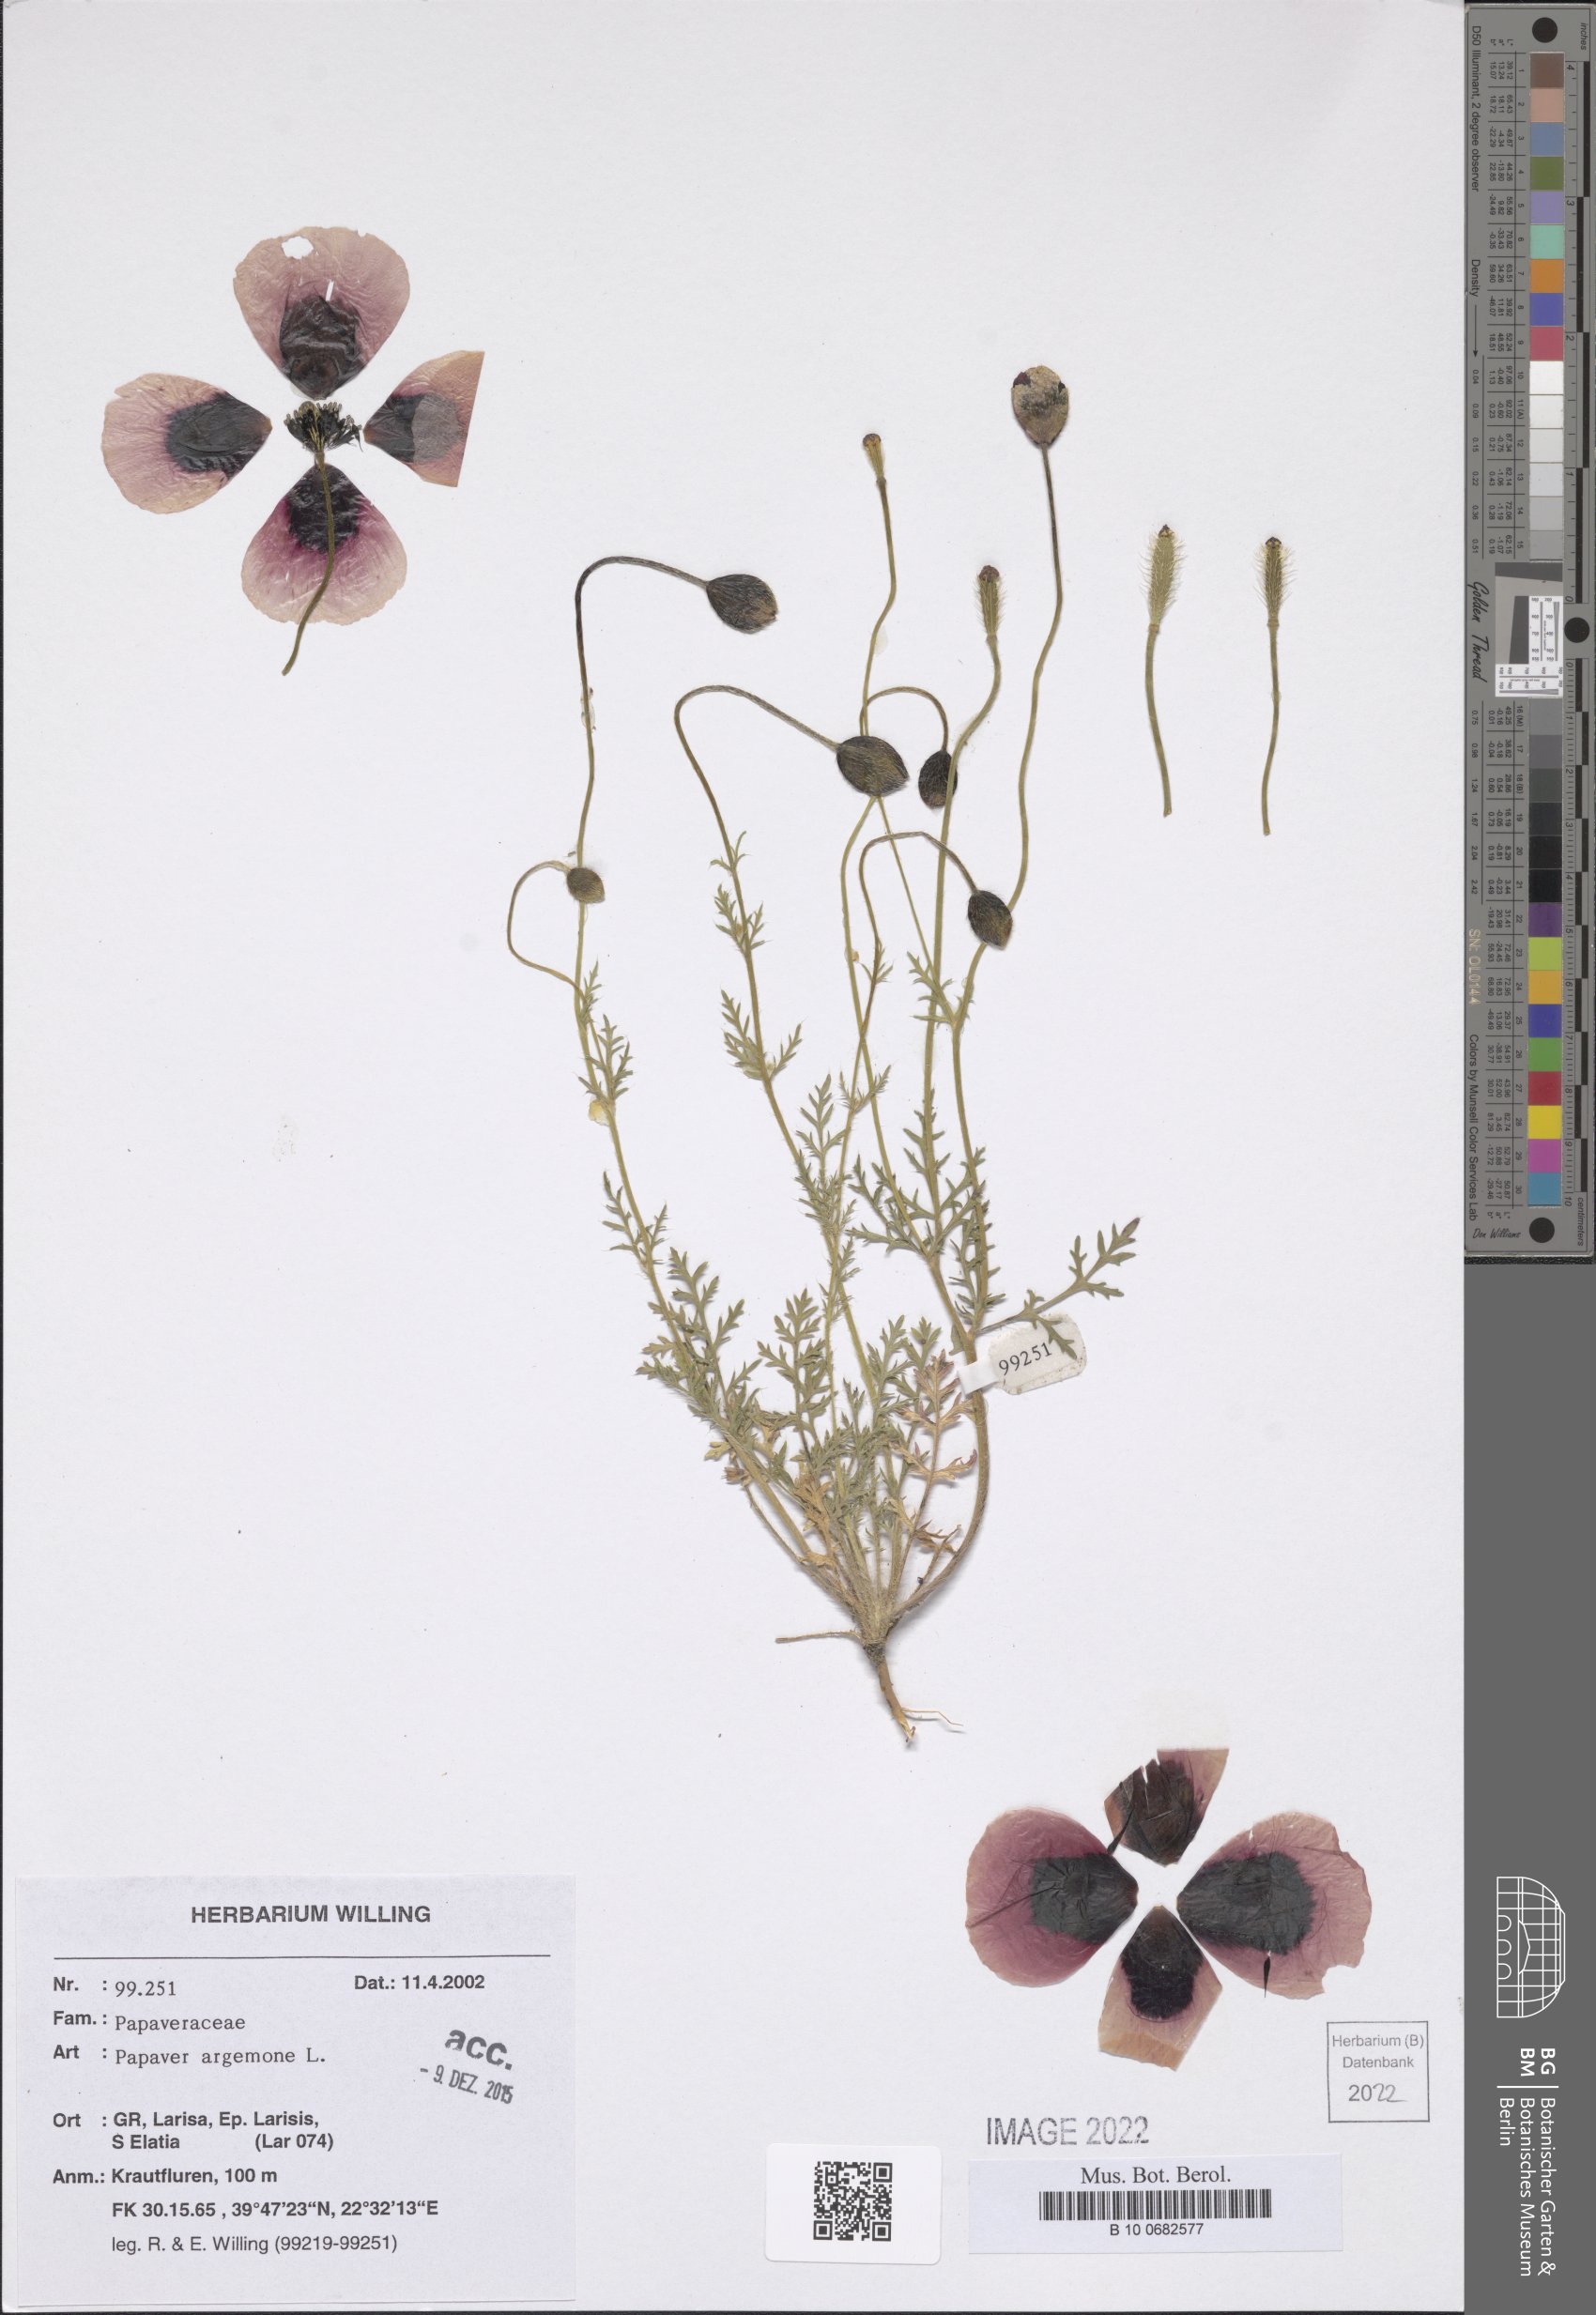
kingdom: Plantae
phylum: Tracheophyta
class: Magnoliopsida
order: Ranunculales
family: Papaveraceae
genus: Roemeria
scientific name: Roemeria argemone
